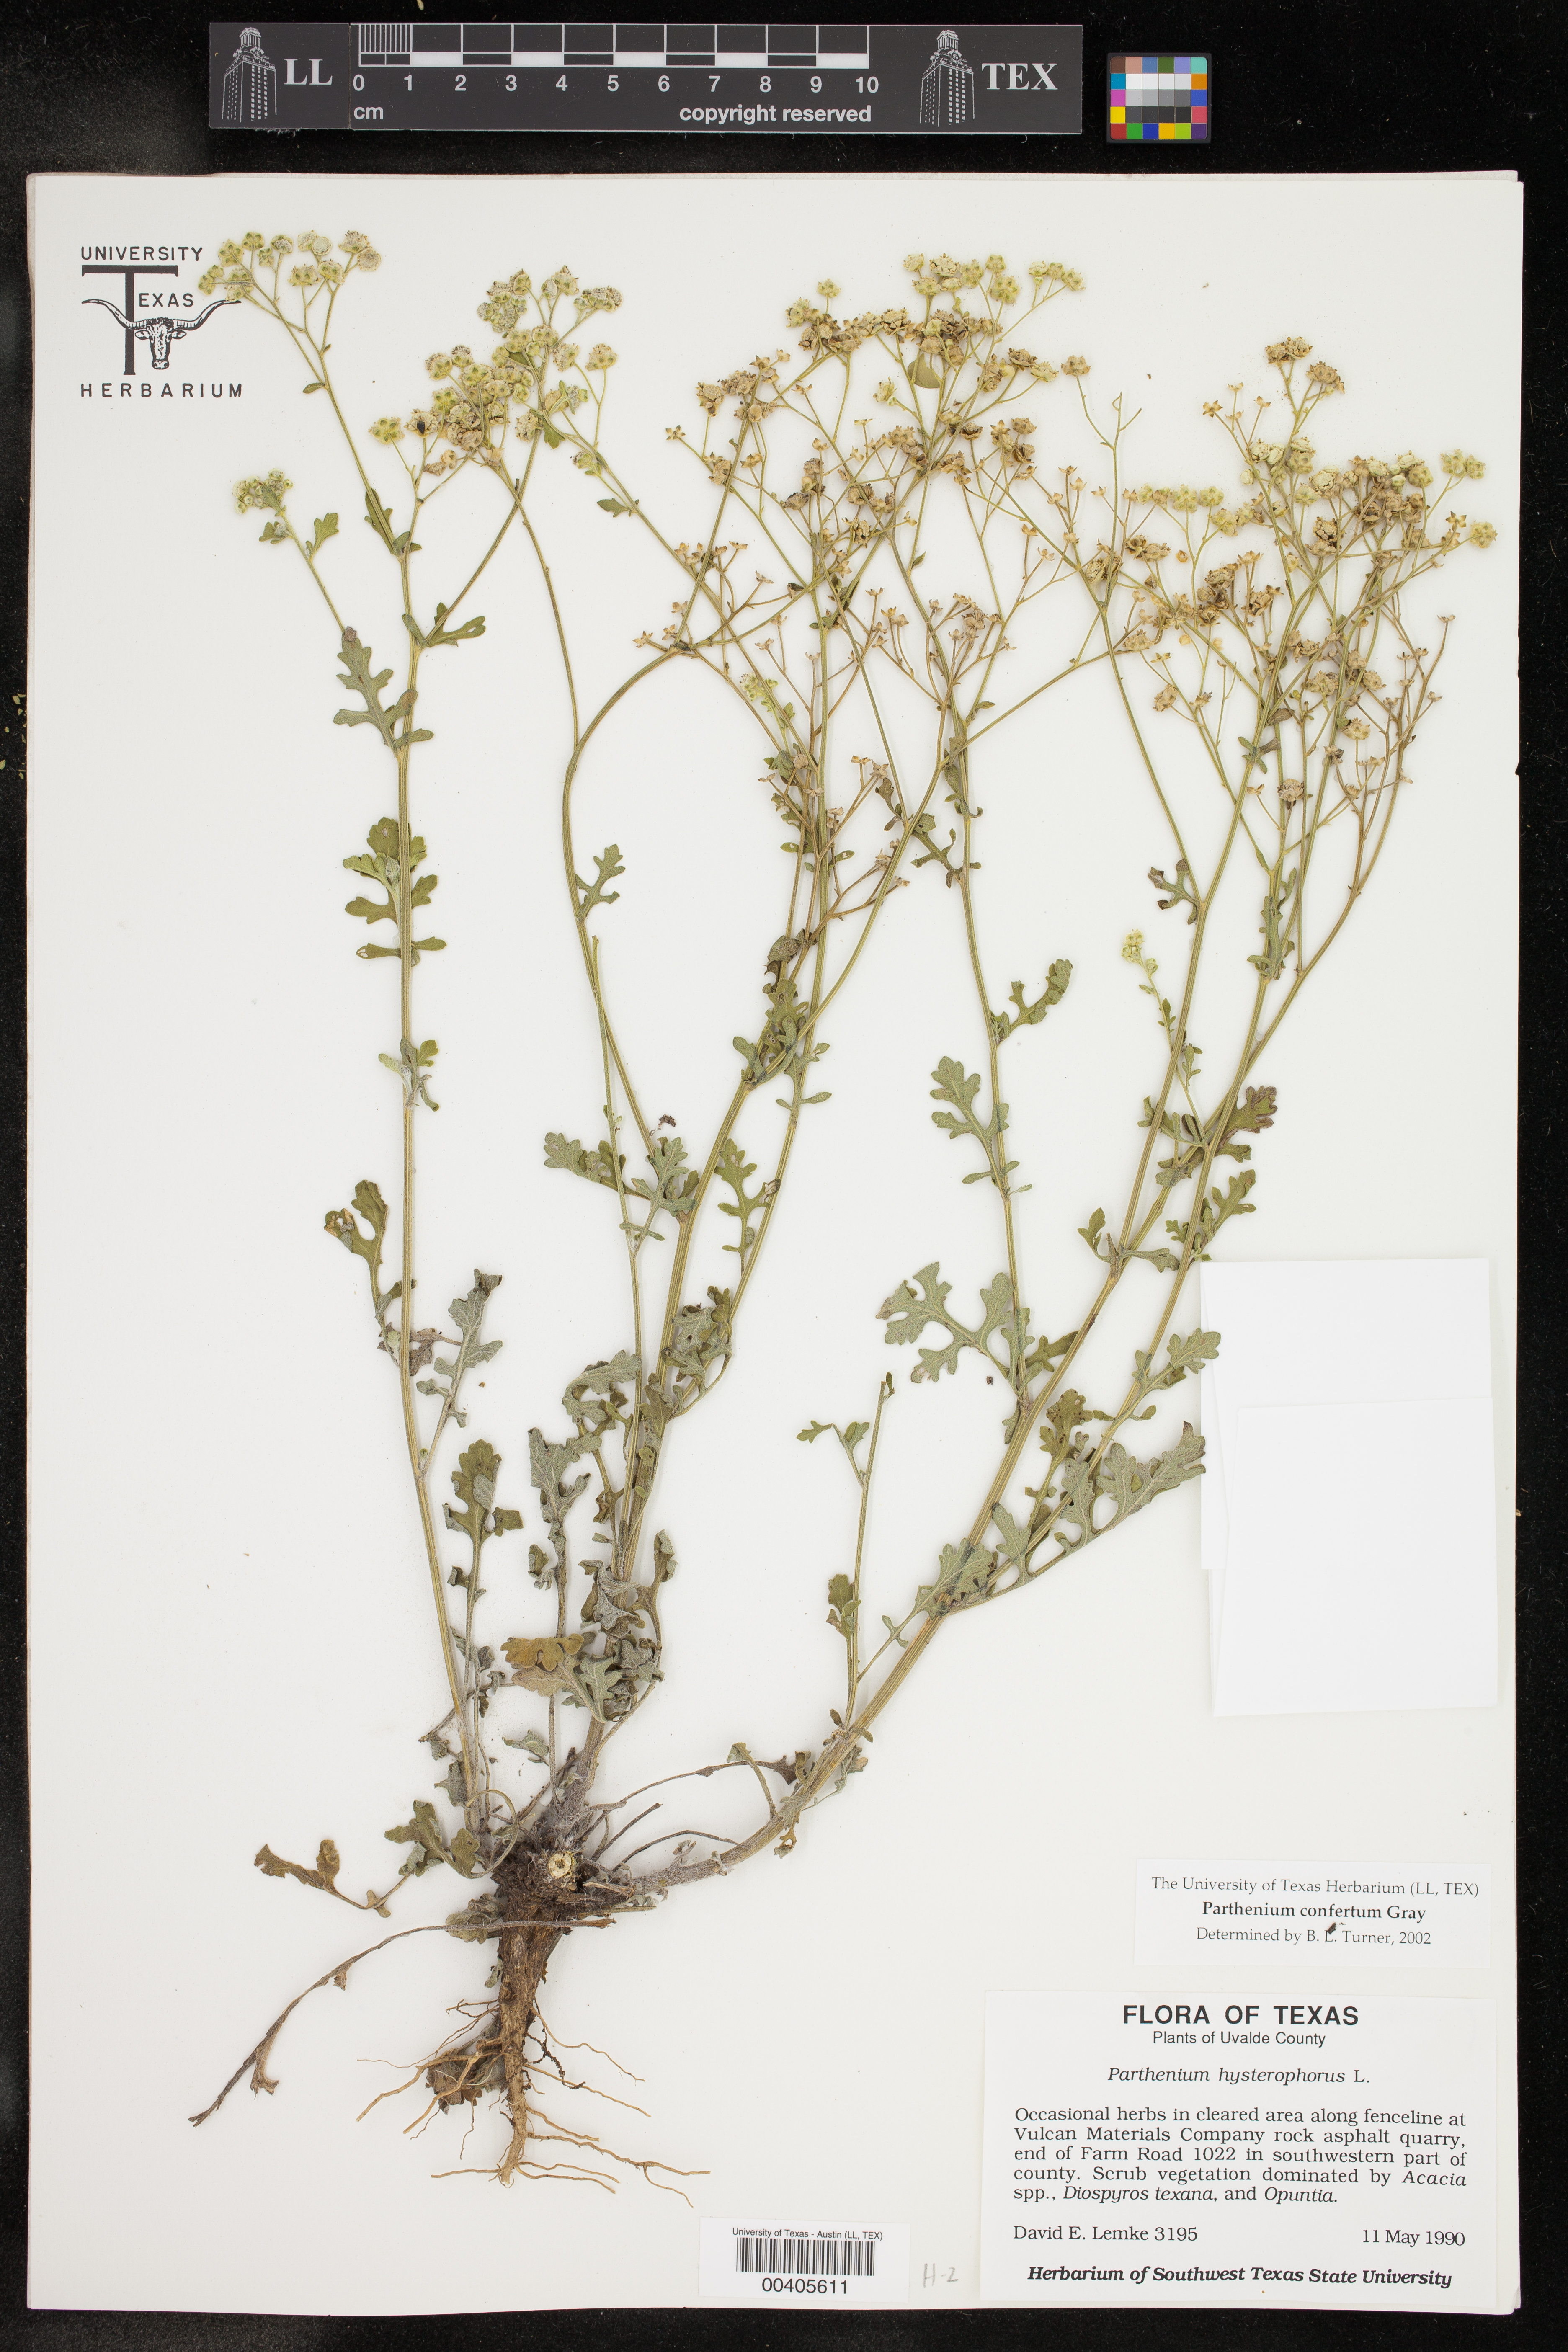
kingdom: Plantae
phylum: Tracheophyta
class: Magnoliopsida
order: Asterales
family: Asteraceae
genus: Parthenium
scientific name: Parthenium confertum
